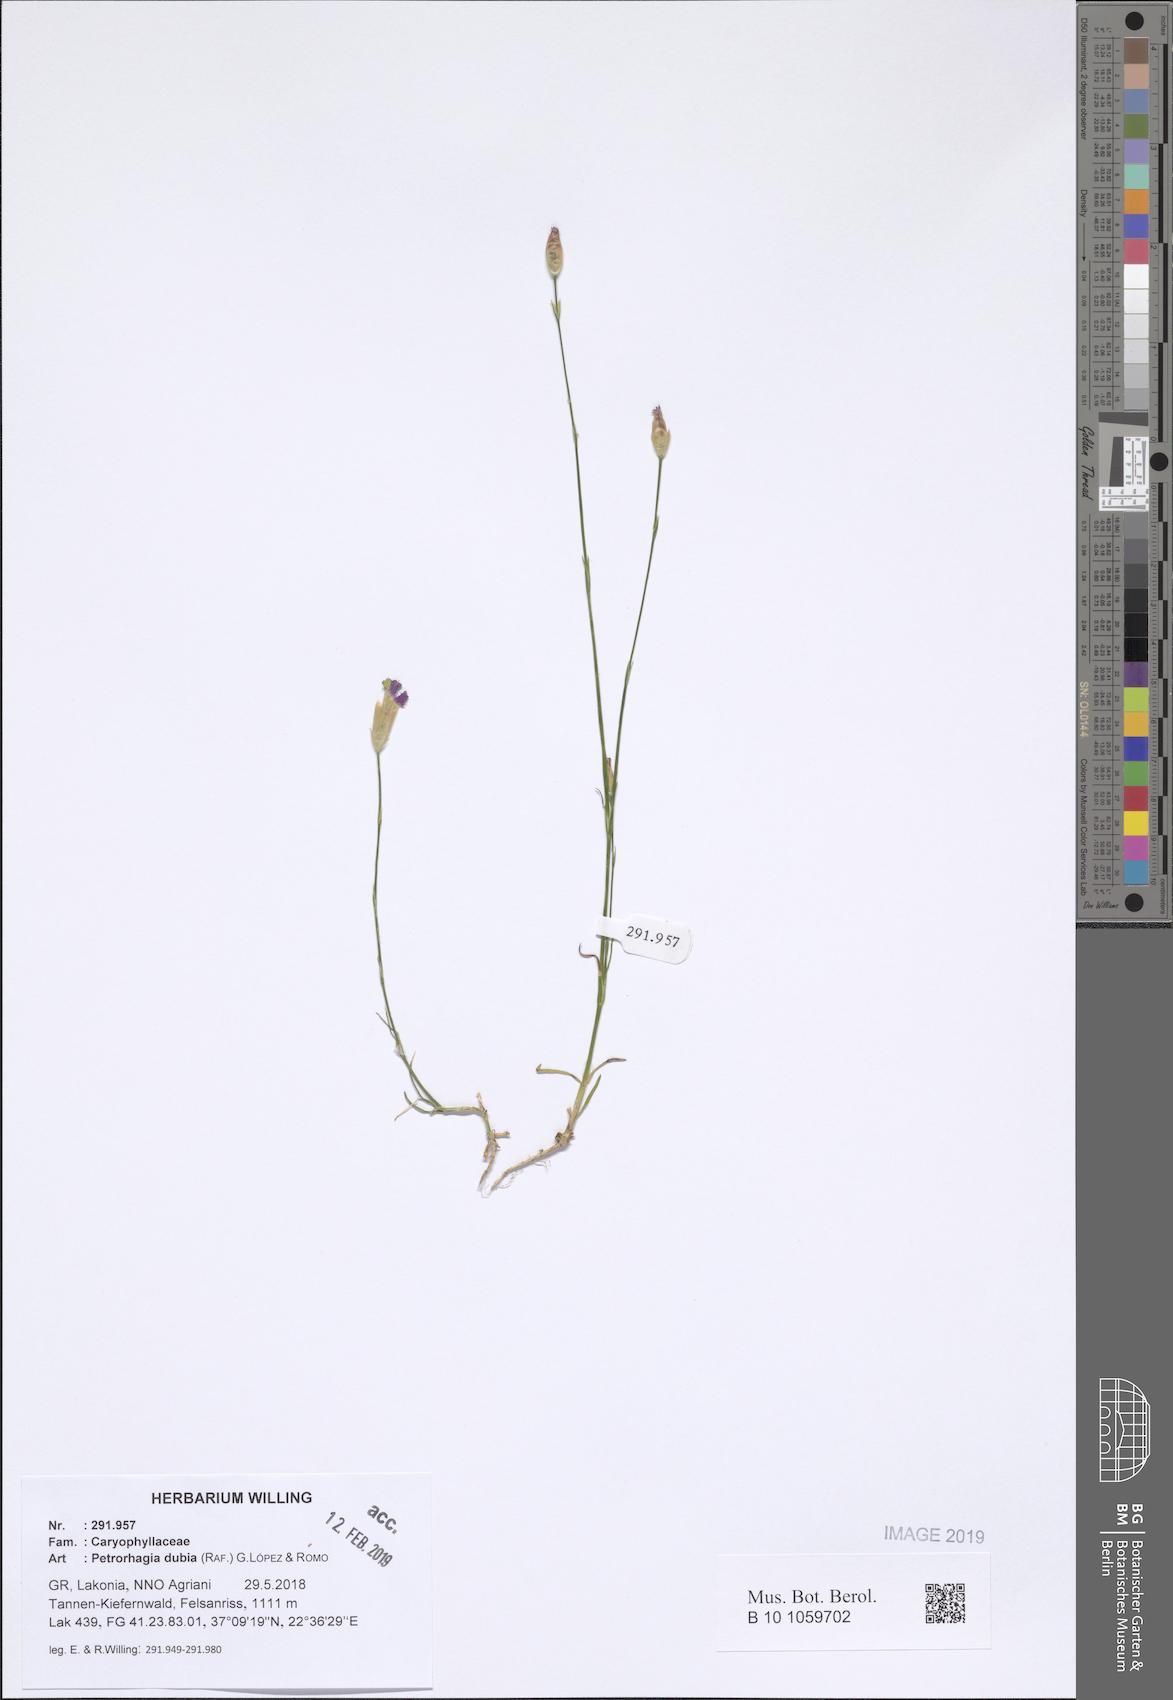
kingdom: Plantae
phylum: Tracheophyta
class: Magnoliopsida
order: Caryophyllales
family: Caryophyllaceae
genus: Petrorhagia
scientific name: Petrorhagia dubia
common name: Hairypink
